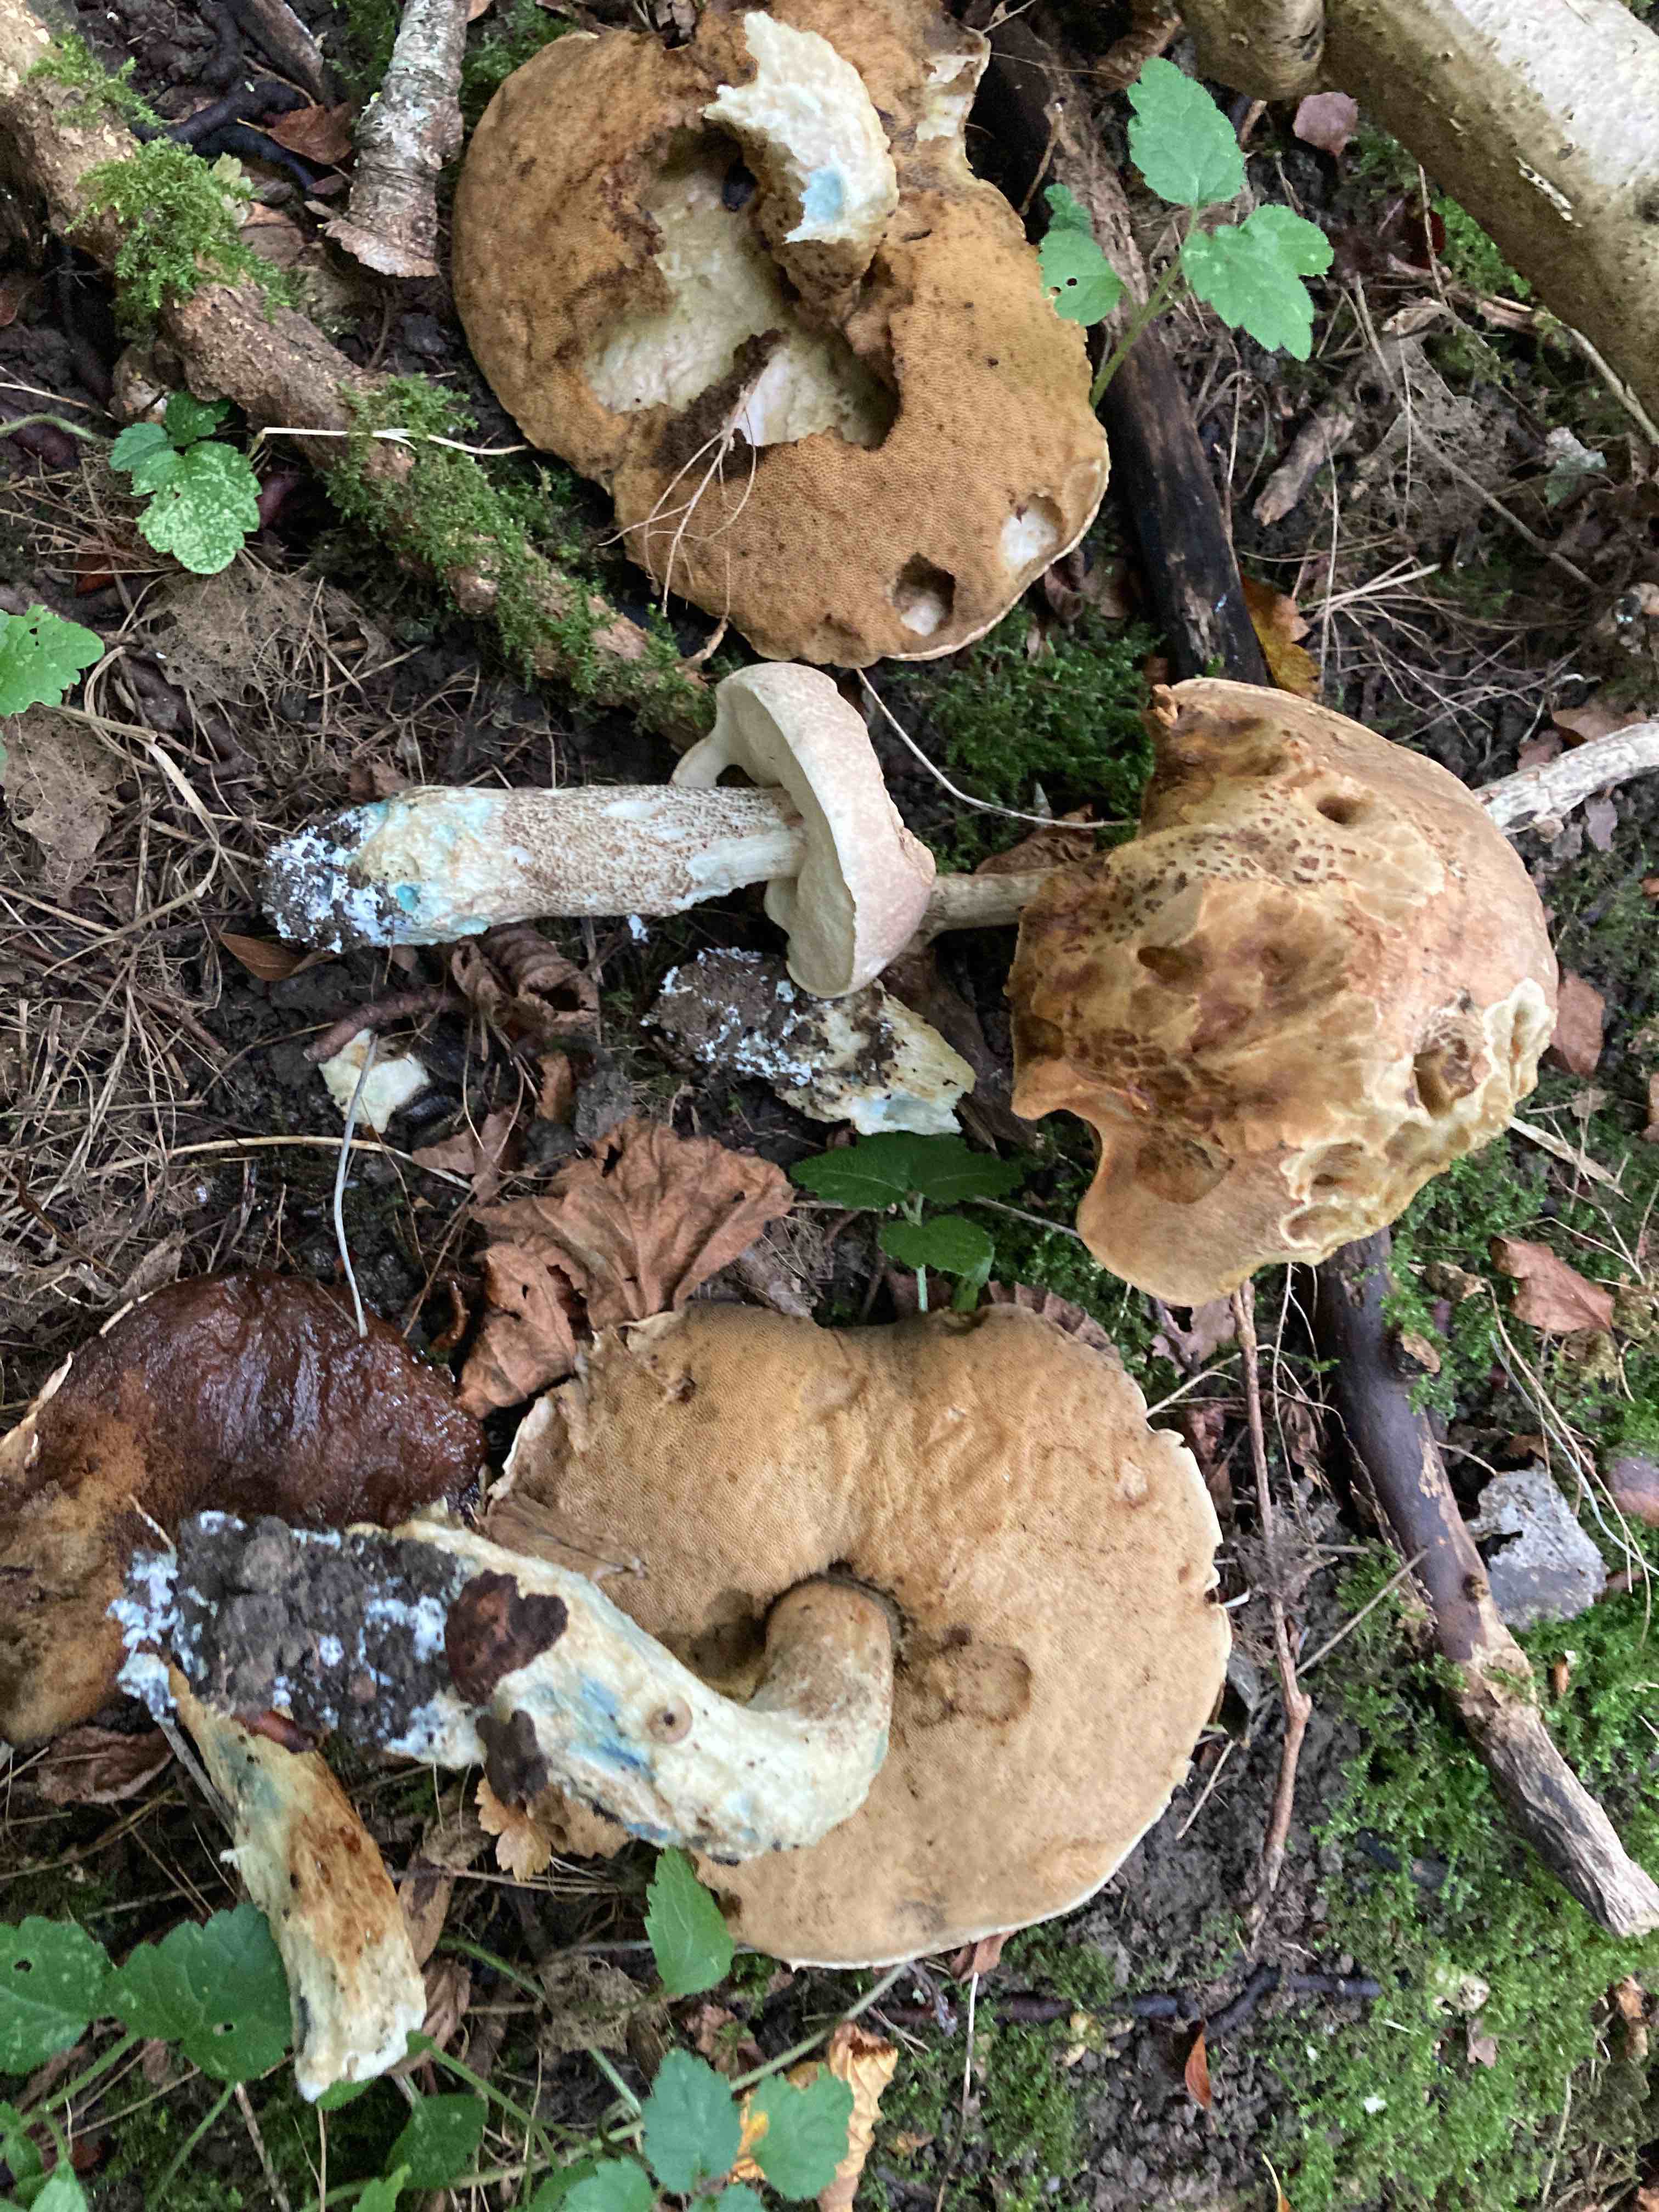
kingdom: Fungi
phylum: Basidiomycota
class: Agaricomycetes
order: Boletales
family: Boletaceae
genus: Leccinum
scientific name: Leccinum duriusculum
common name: poppel-skælrørhat
